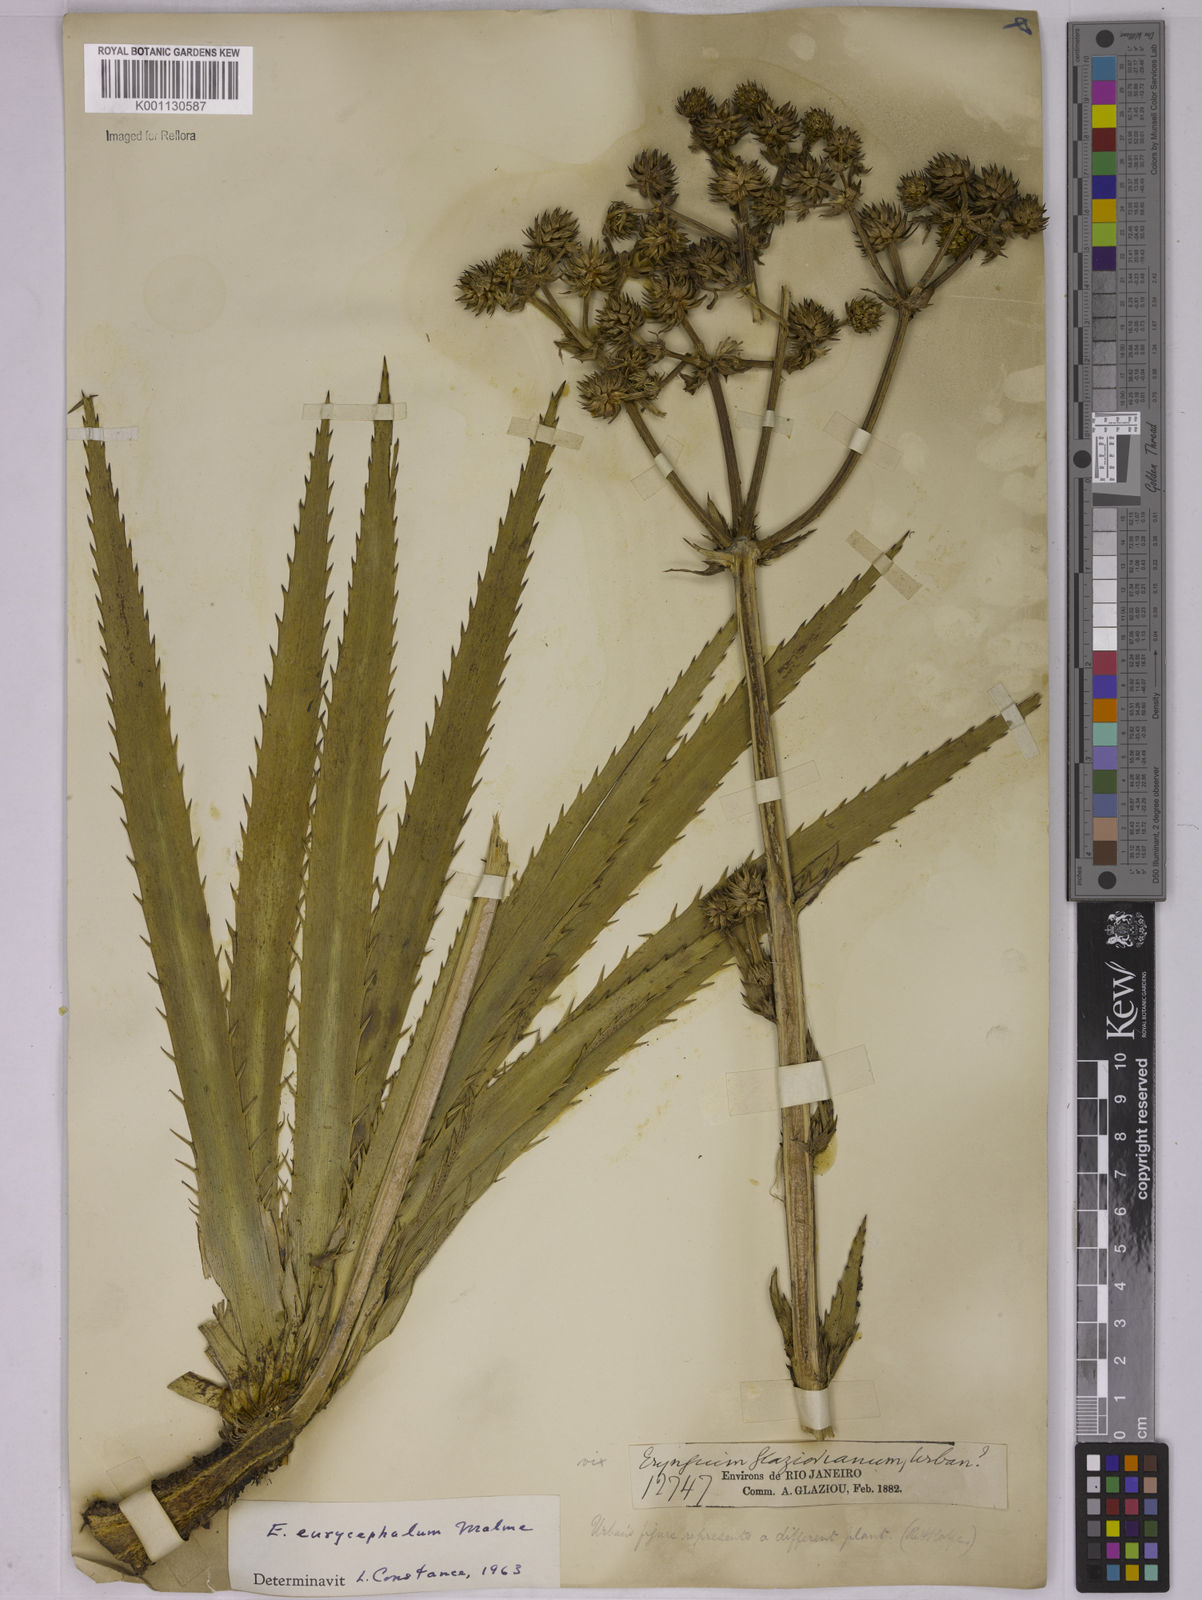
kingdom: Plantae
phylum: Tracheophyta
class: Magnoliopsida
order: Apiales
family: Apiaceae
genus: Eryngium
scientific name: Eryngium eurycephalum
